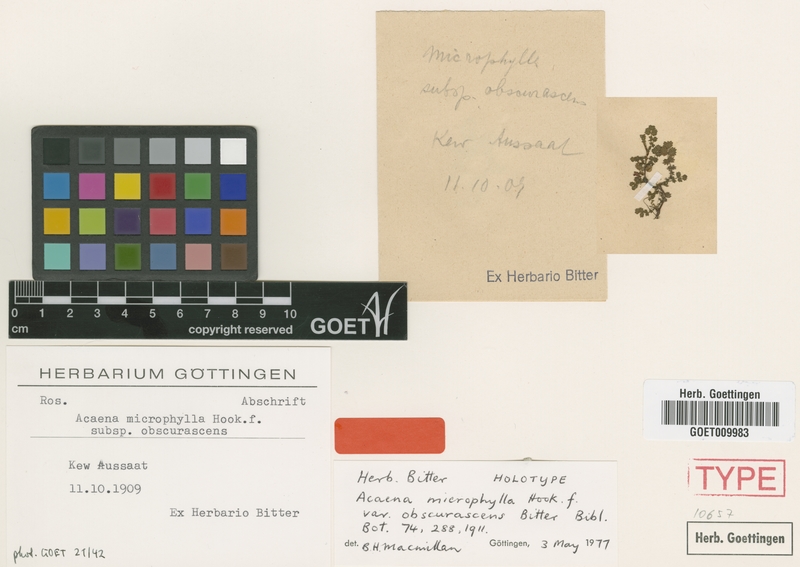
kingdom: Plantae
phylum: Tracheophyta
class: Magnoliopsida
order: Rosales
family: Rosaceae
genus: Acaena
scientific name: Acaena microphylla
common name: New zealand-bur
